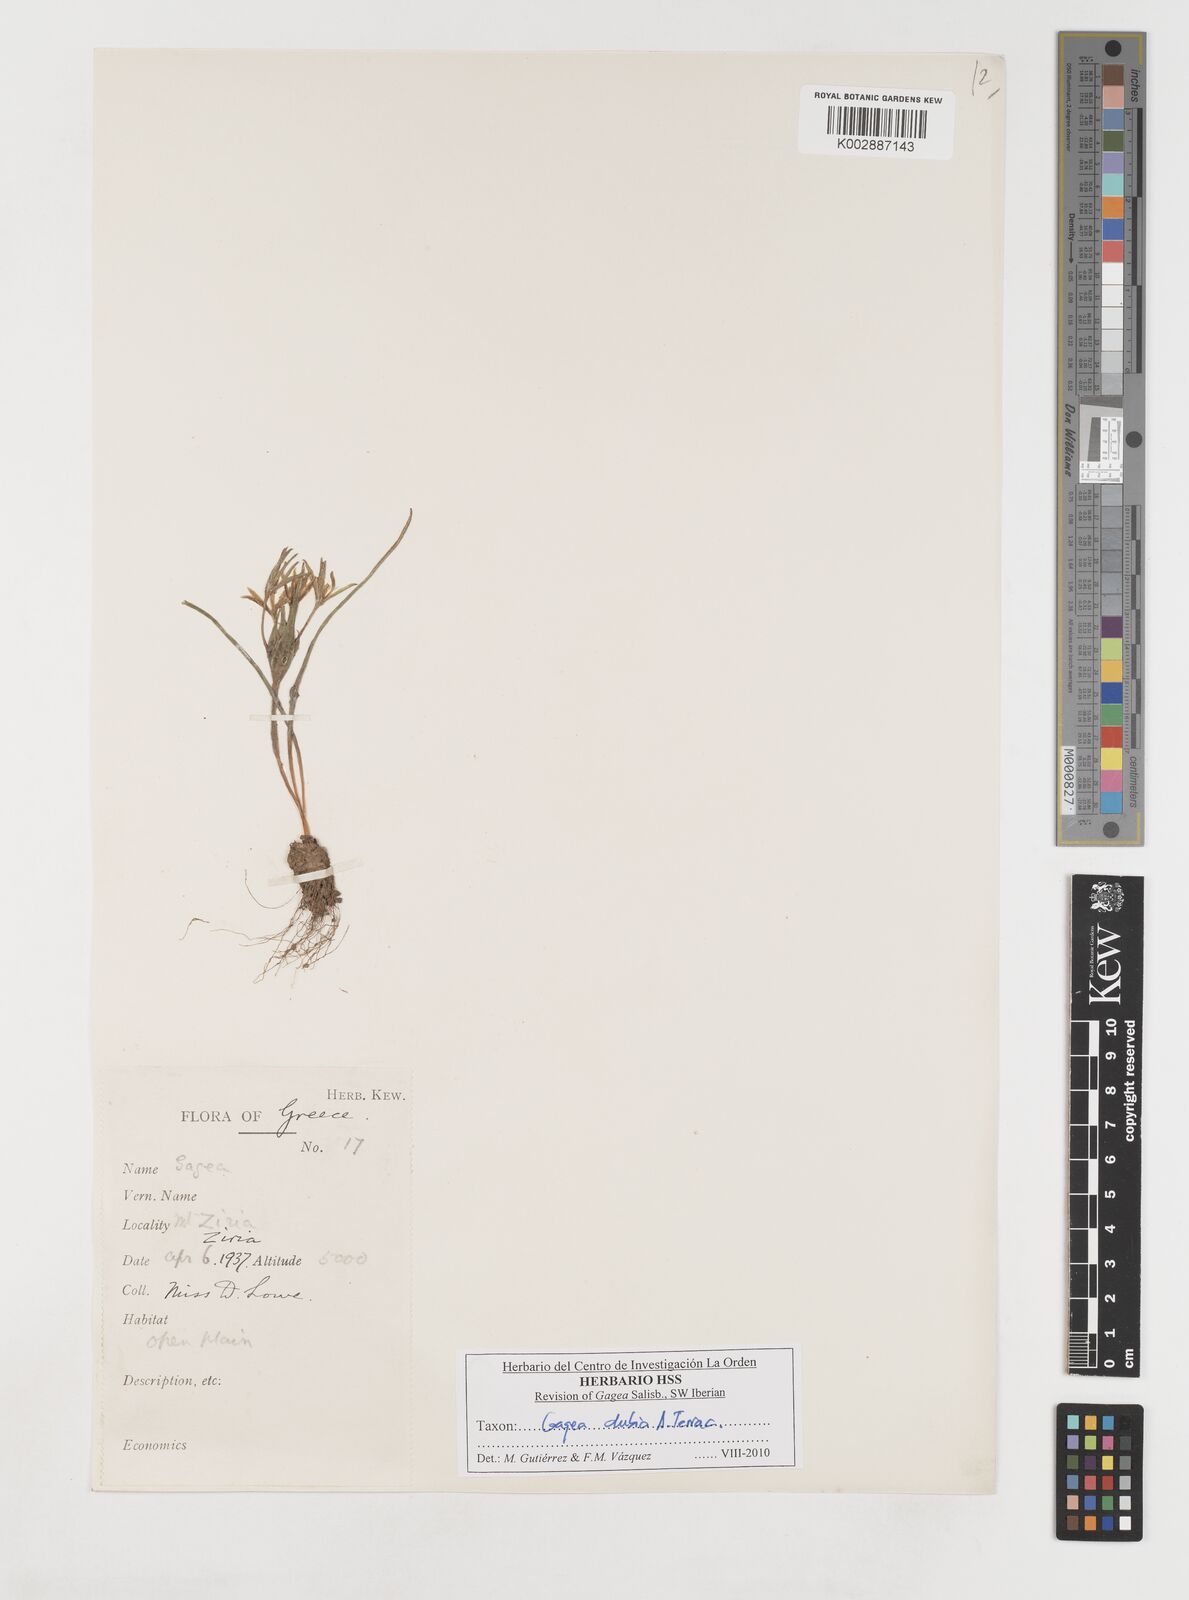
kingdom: Plantae
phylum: Tracheophyta
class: Liliopsida
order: Liliales
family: Liliaceae
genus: Gagea
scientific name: Gagea dubia
